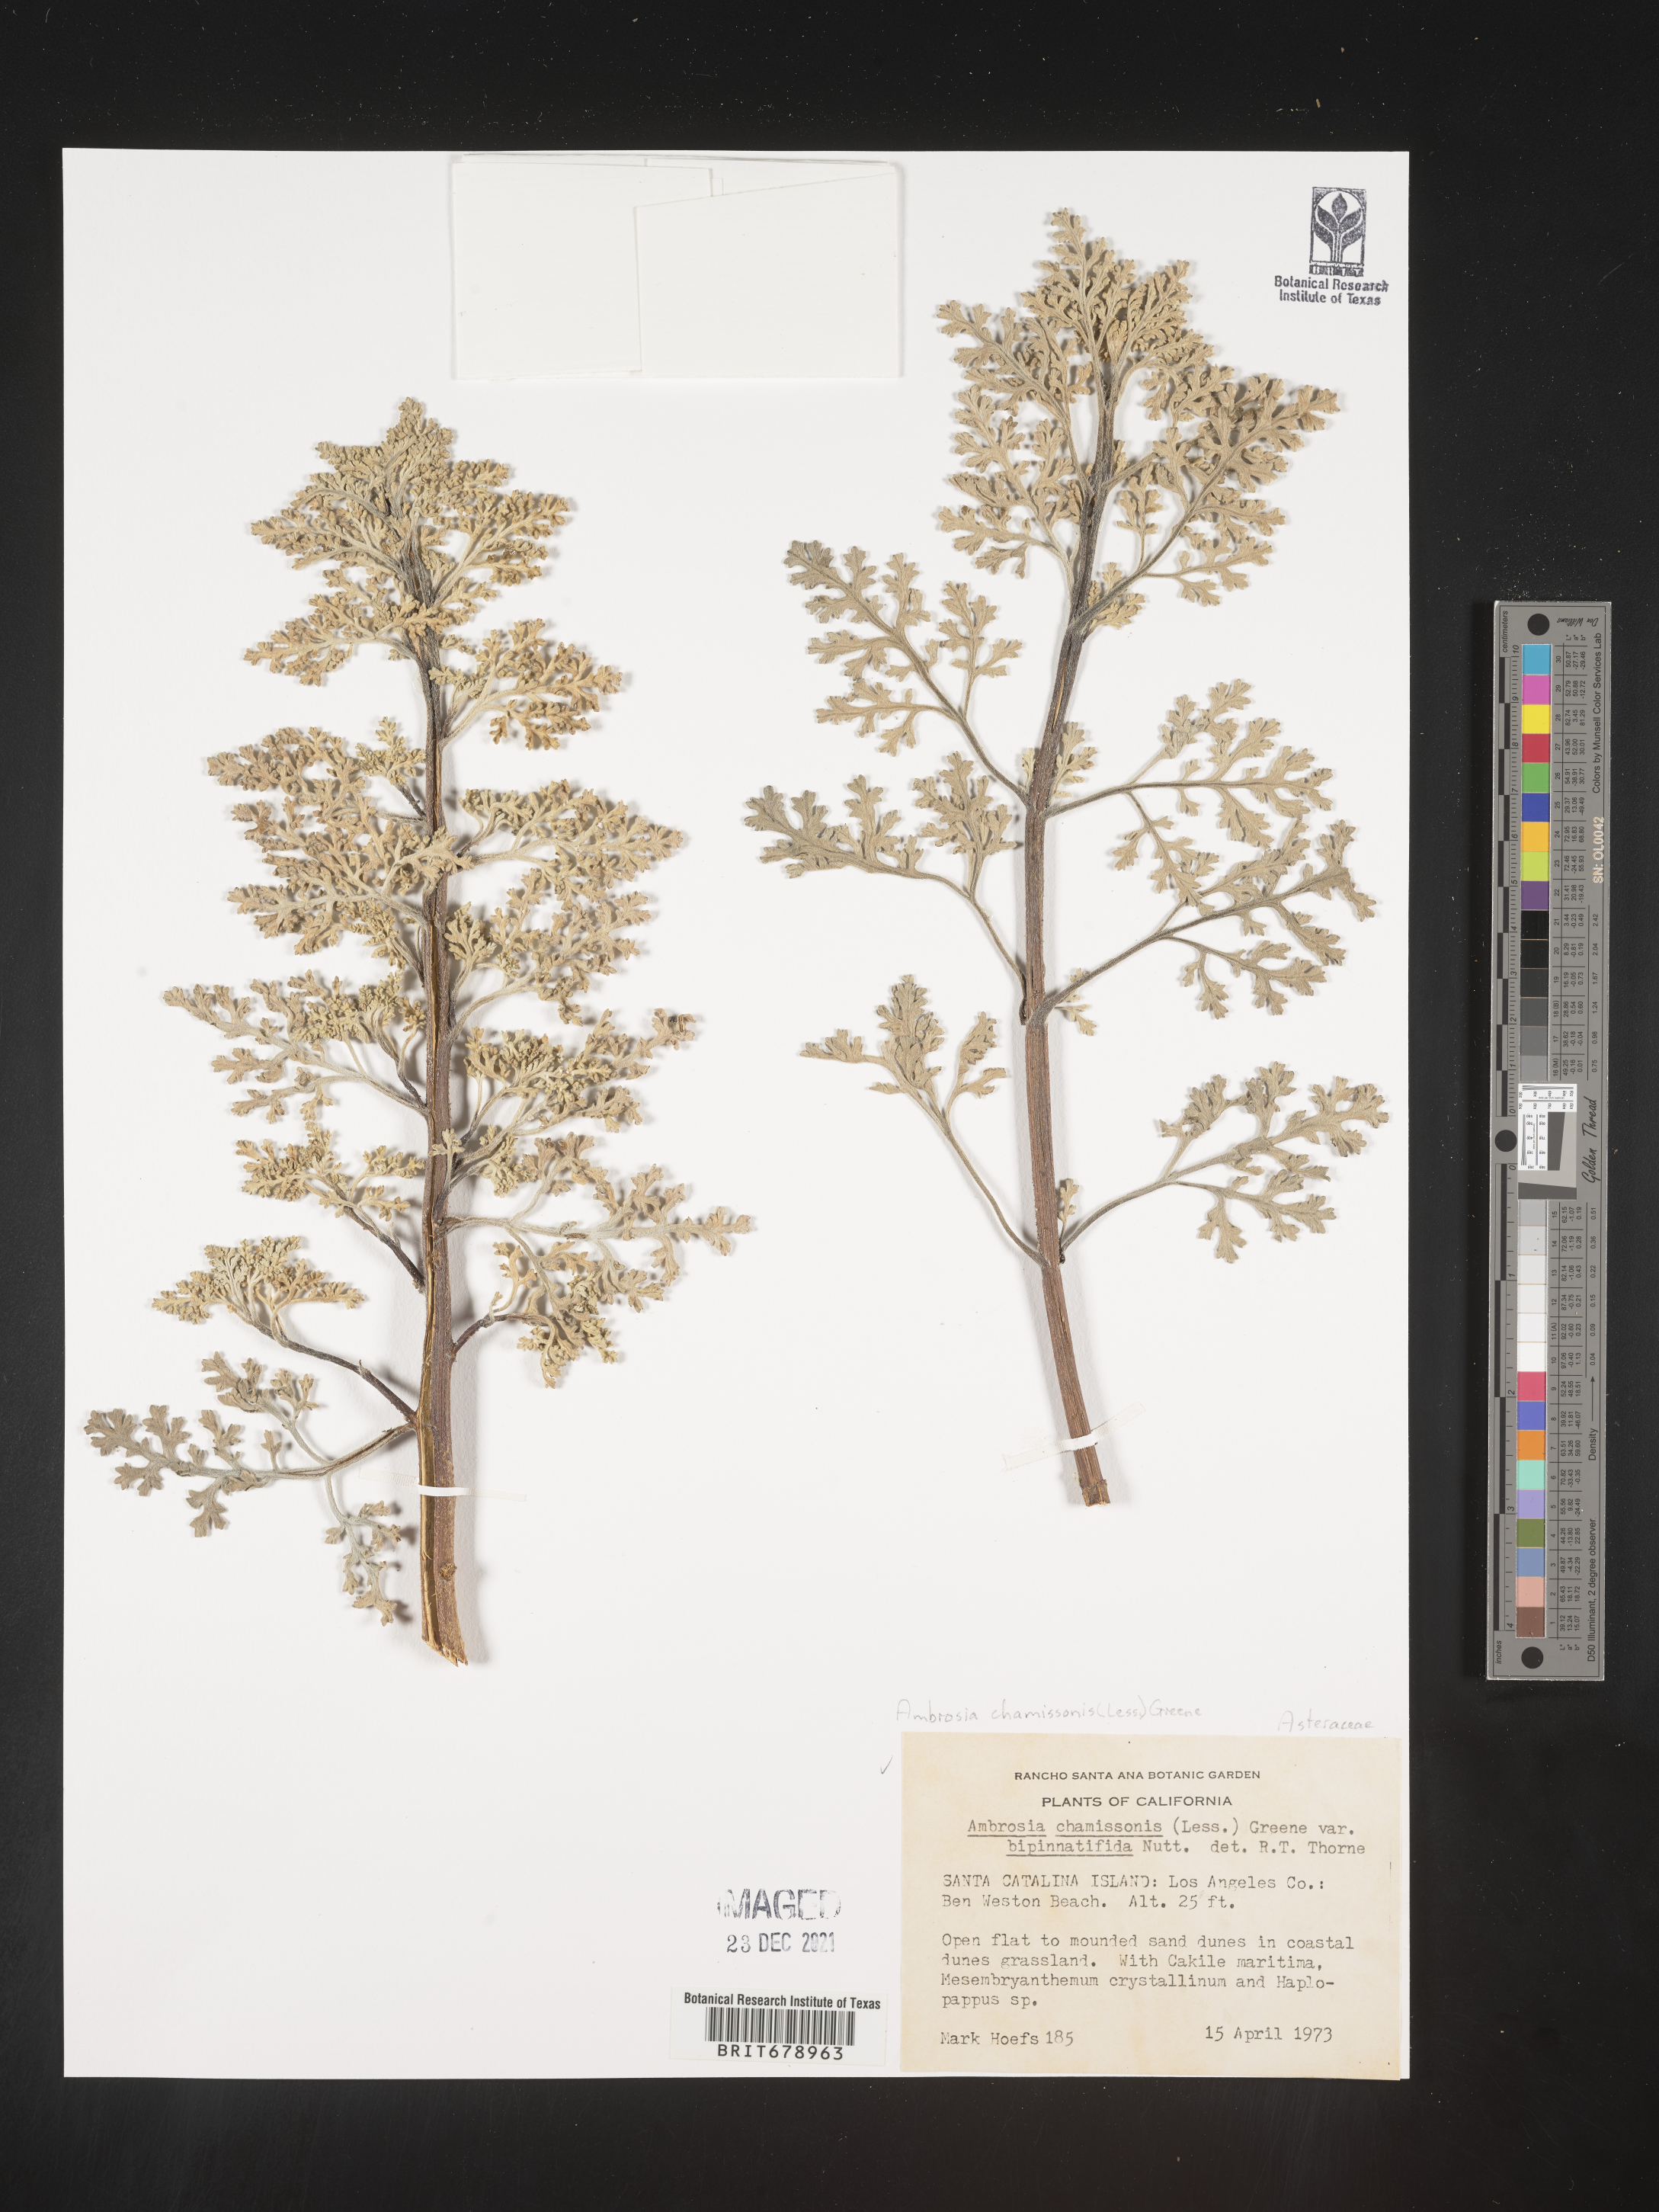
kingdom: Plantae
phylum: Tracheophyta
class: Magnoliopsida
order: Asterales
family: Asteraceae
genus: Ambrosia
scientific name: Ambrosia chamissonis
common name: Beachbur
